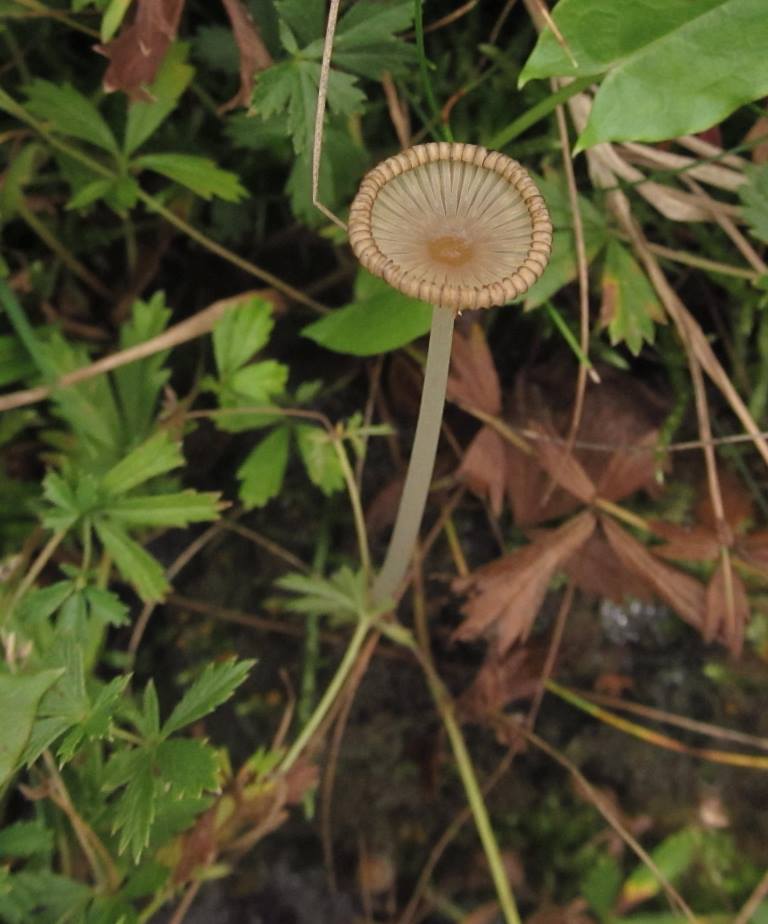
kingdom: Fungi
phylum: Basidiomycota
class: Agaricomycetes
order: Agaricales
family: Psathyrellaceae
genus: Parasola
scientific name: Parasola misera
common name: lillebitte hjulhat
